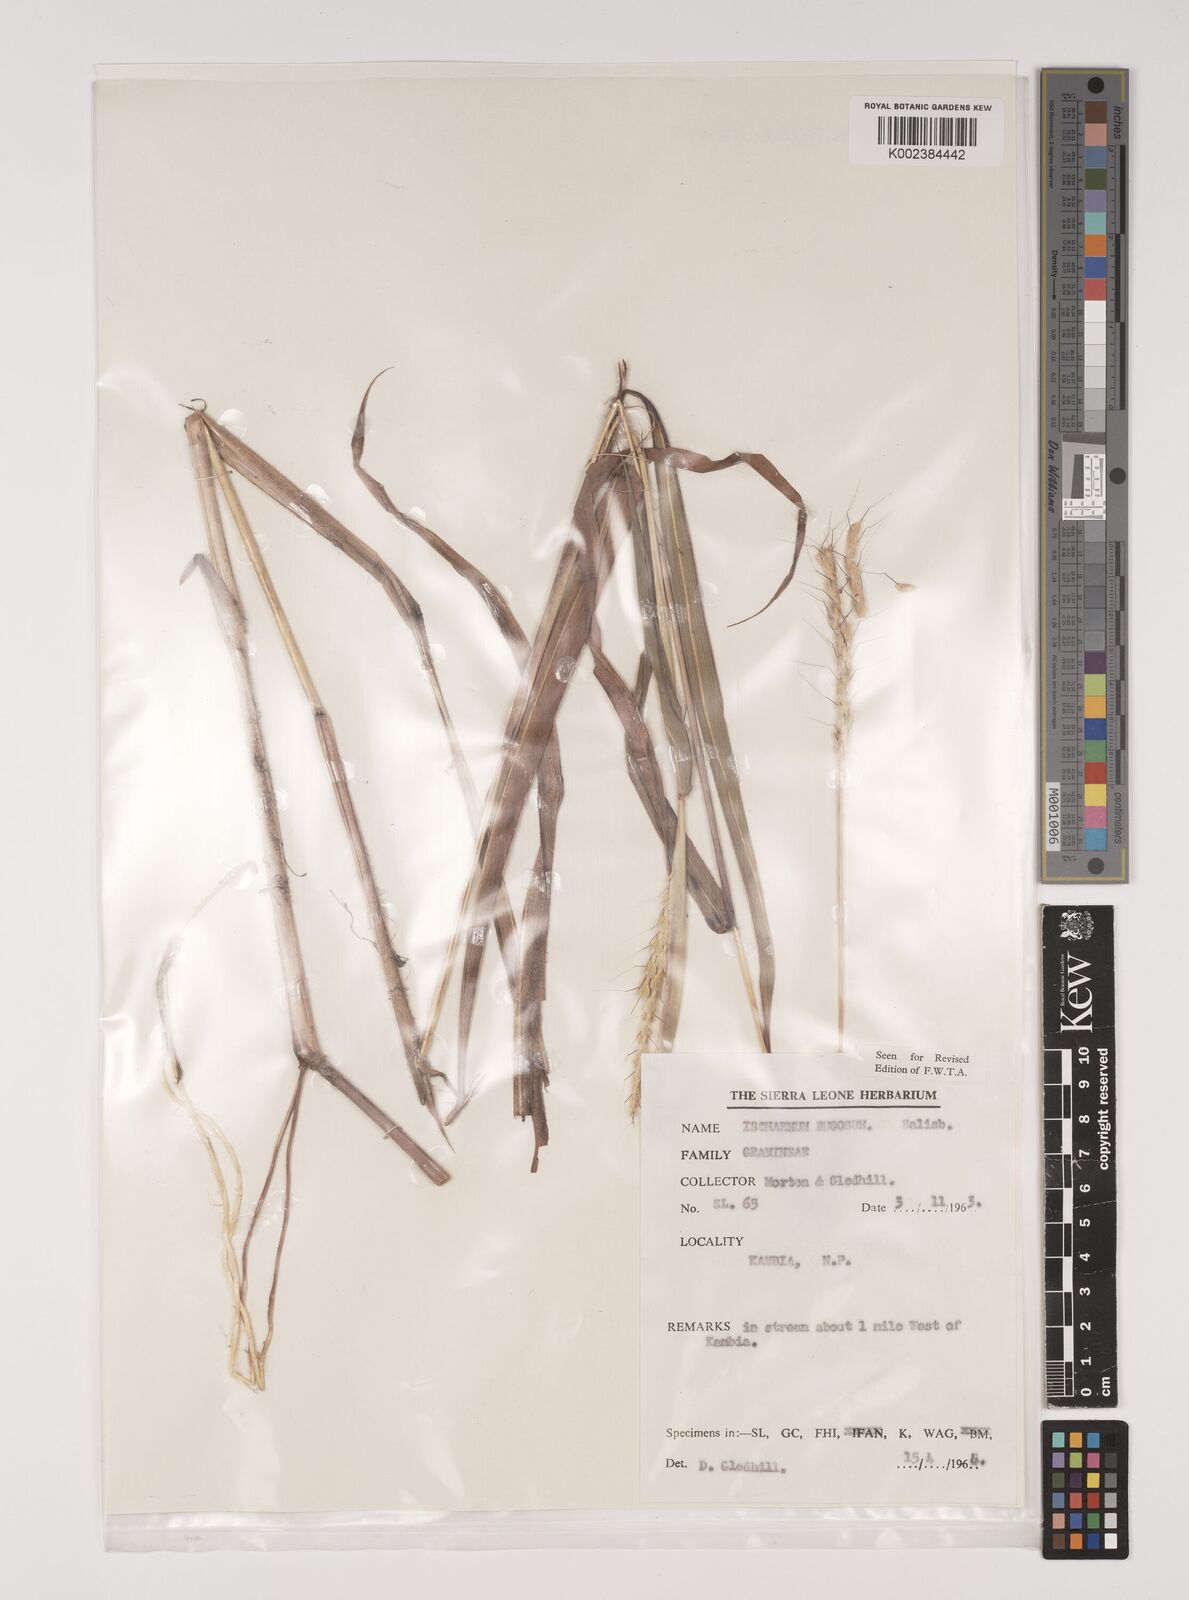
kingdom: Plantae
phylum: Tracheophyta
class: Liliopsida
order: Poales
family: Poaceae
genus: Ischaemum
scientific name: Ischaemum rugosum
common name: Saramatta grass
